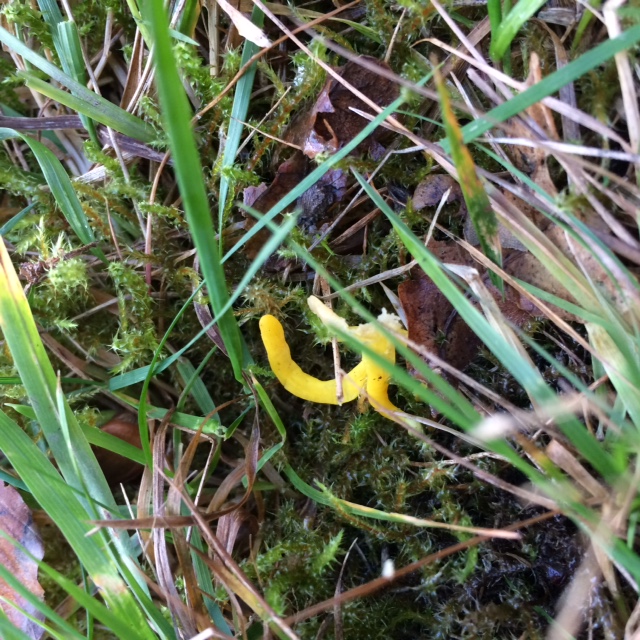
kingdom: Fungi
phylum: Basidiomycota
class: Agaricomycetes
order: Agaricales
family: Clavariaceae
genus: Clavulinopsis
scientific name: Clavulinopsis helvola
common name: orangegul køllesvamp
